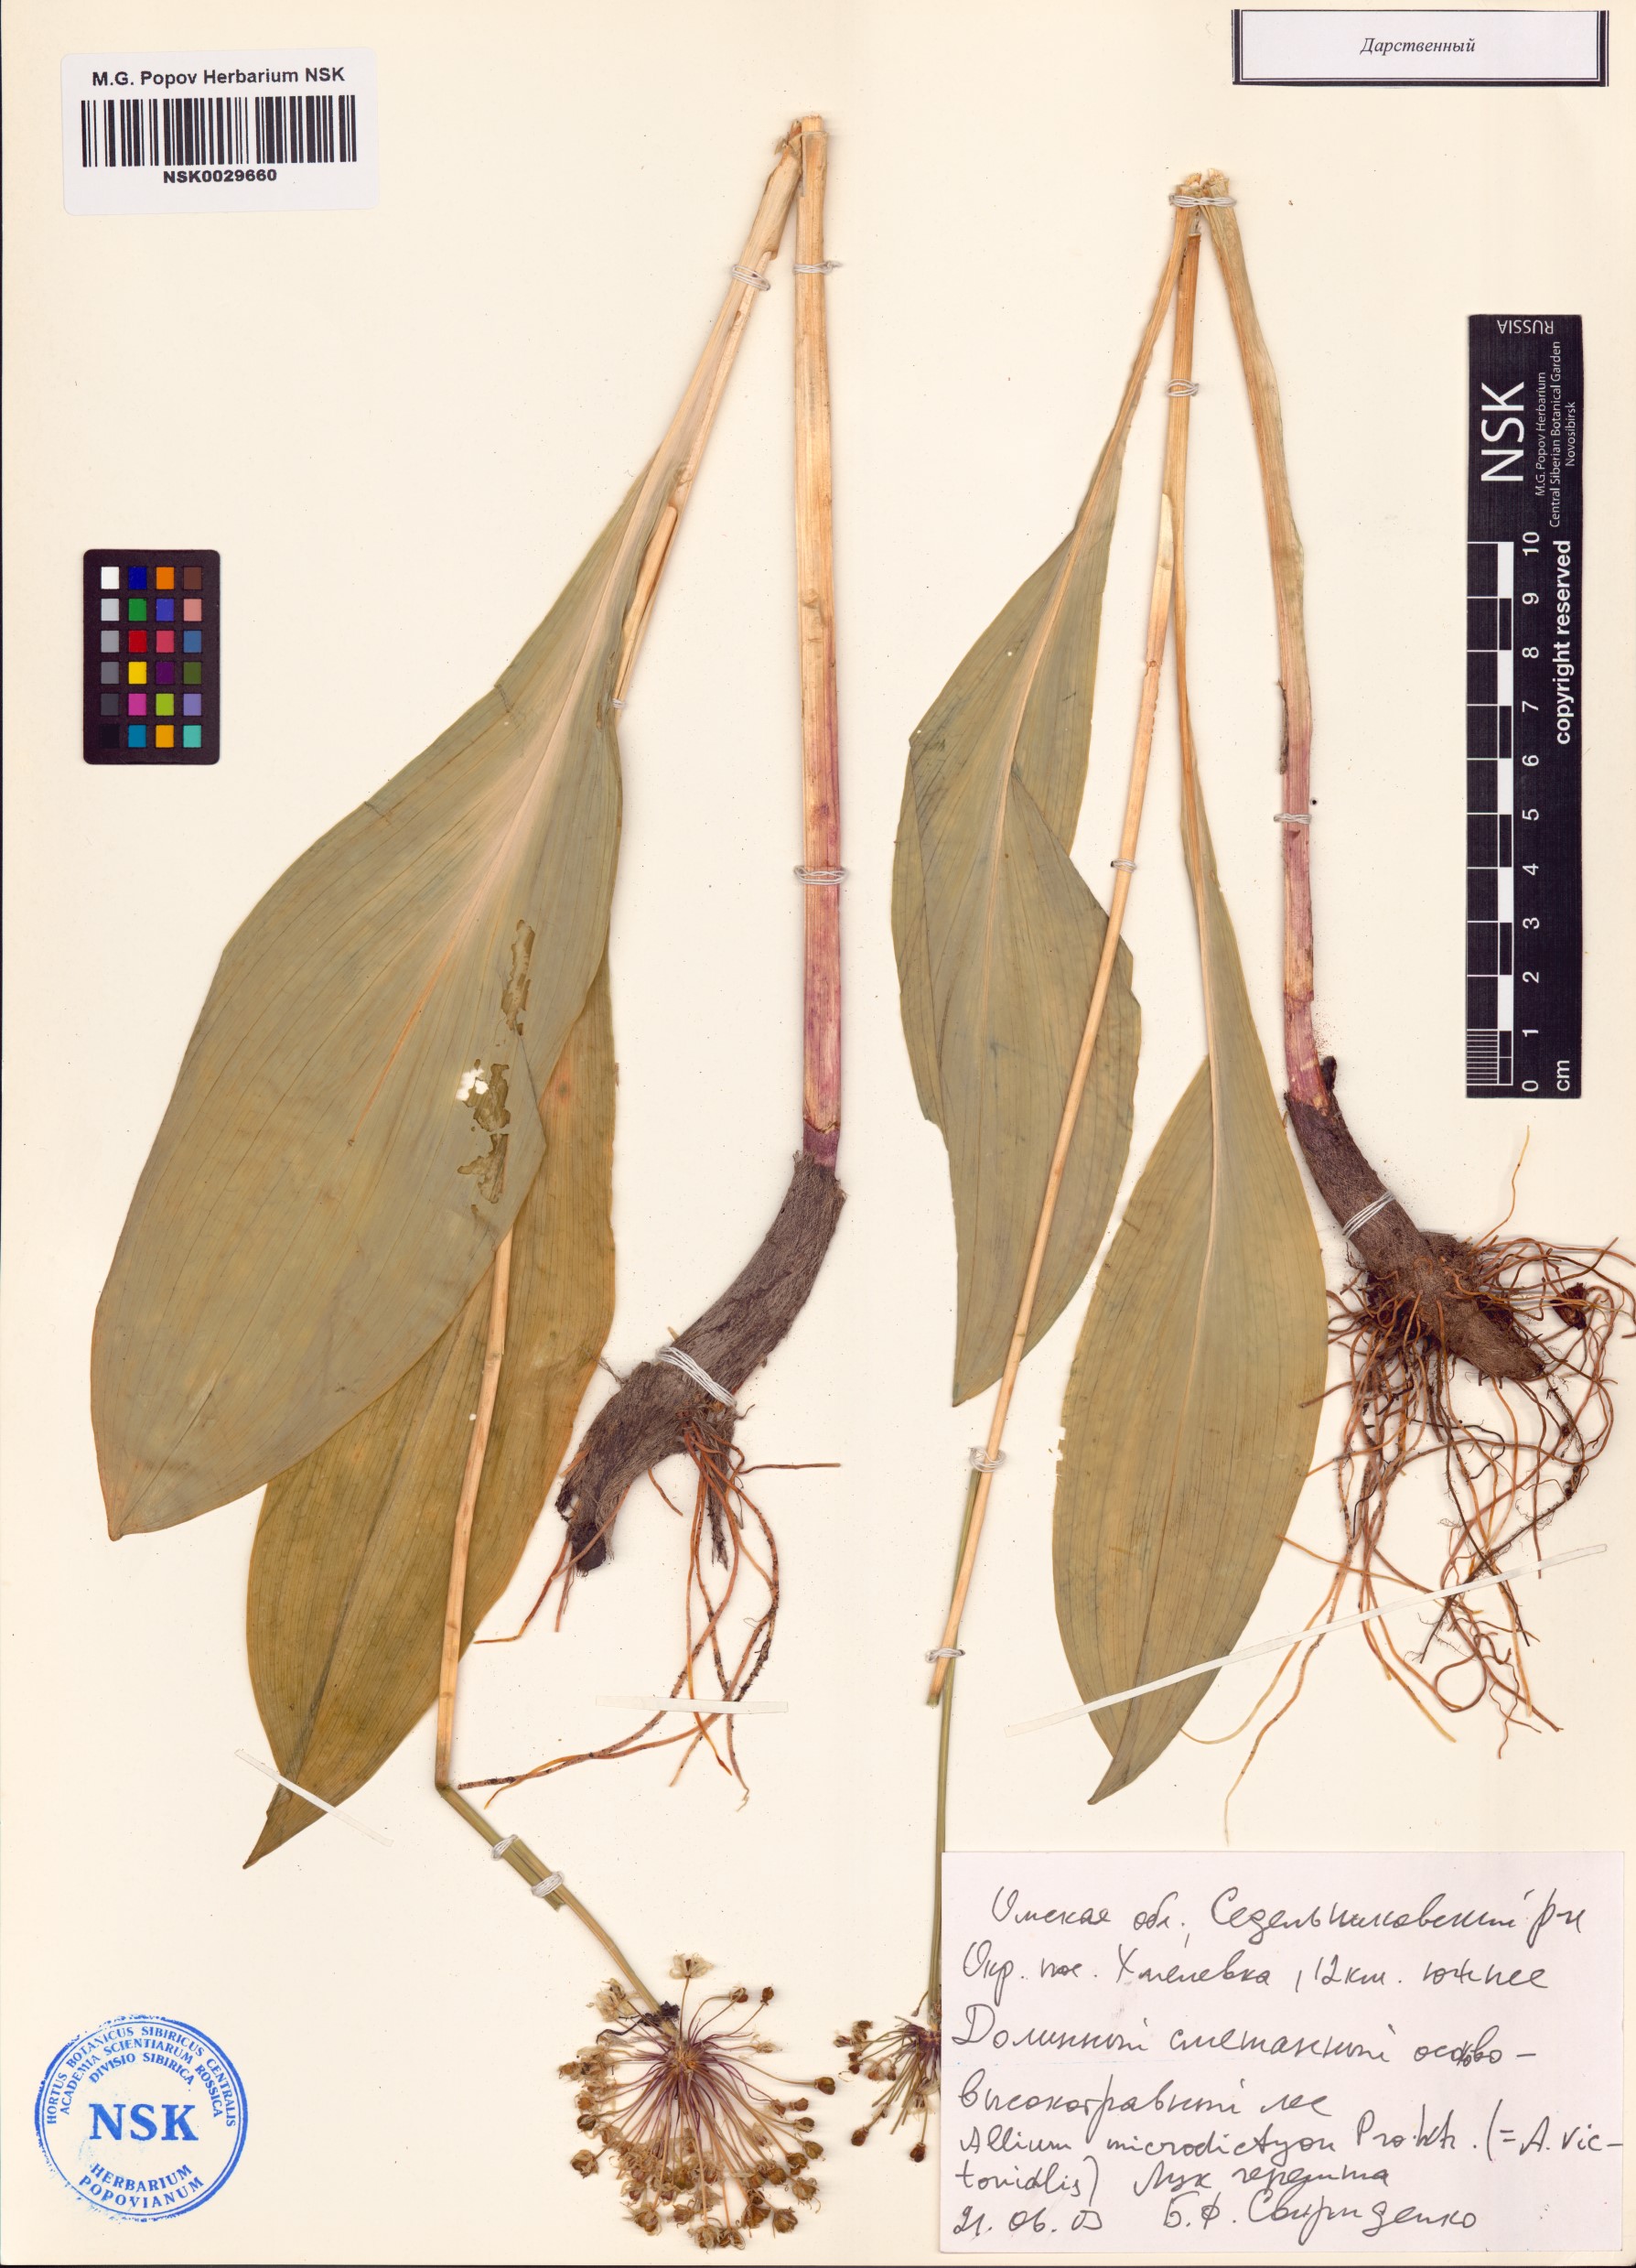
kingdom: Plantae
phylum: Tracheophyta
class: Liliopsida
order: Asparagales
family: Amaryllidaceae
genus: Allium
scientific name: Allium microdictyon
